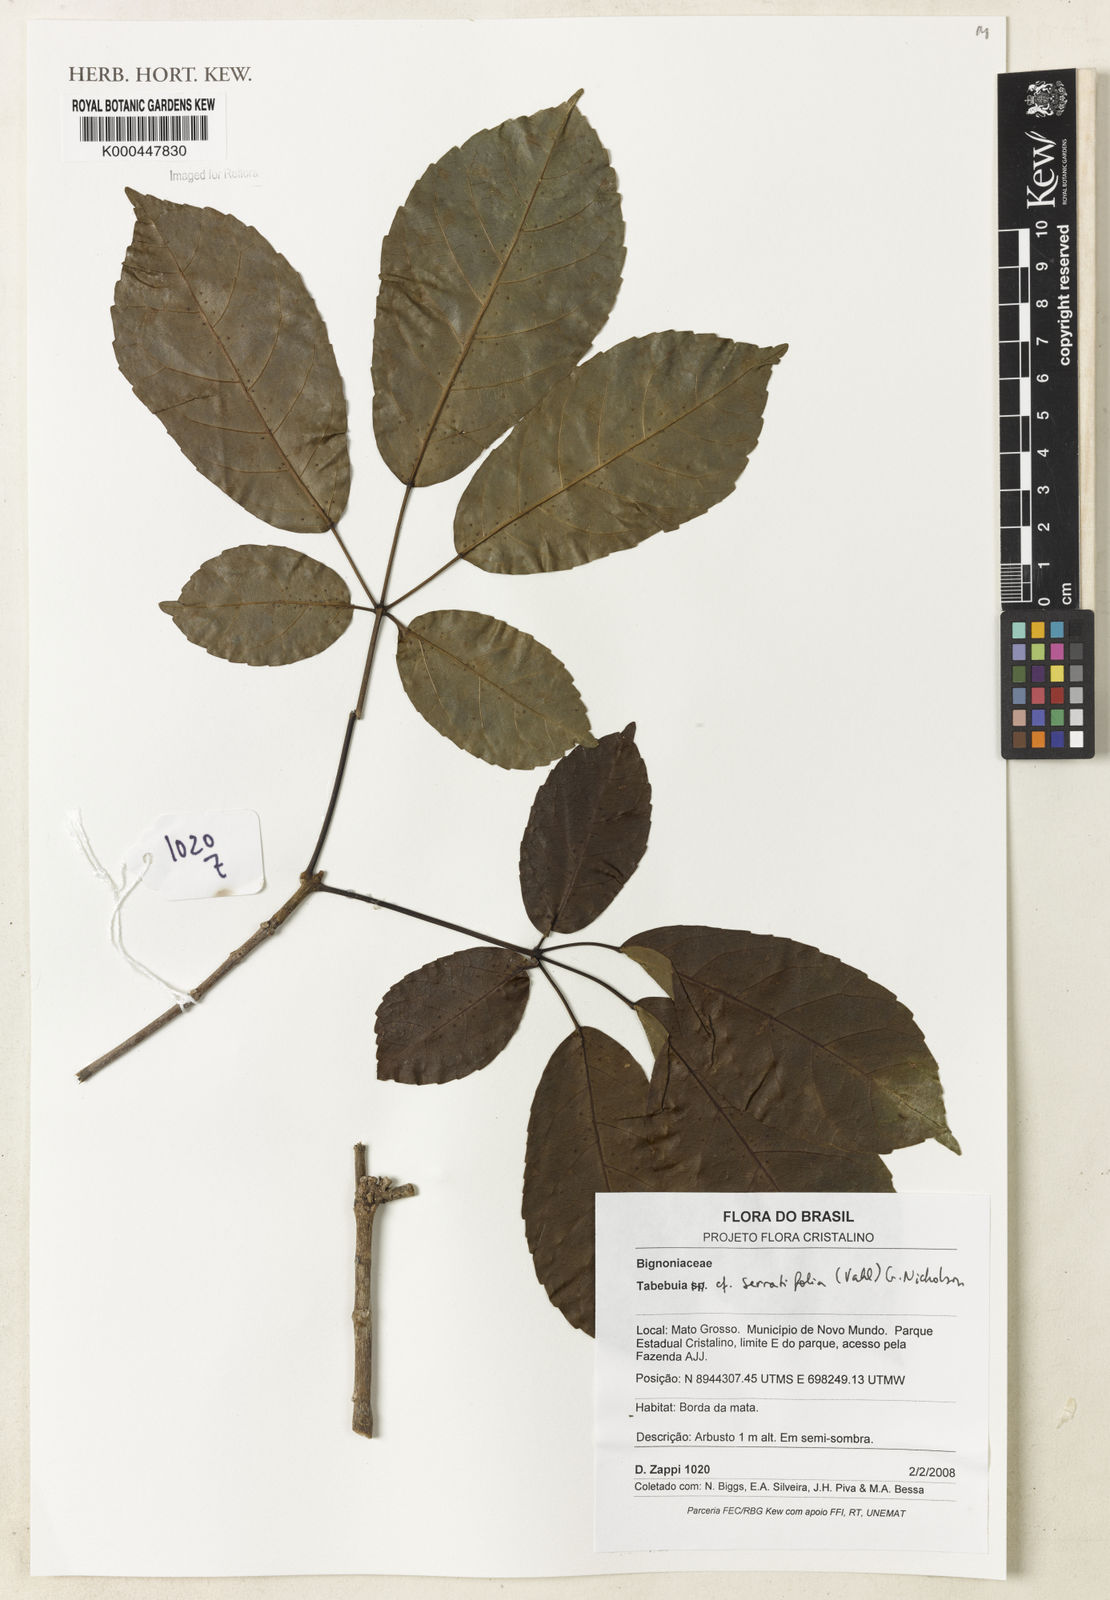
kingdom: Plantae
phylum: Tracheophyta
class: Magnoliopsida
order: Lamiales
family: Bignoniaceae
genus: Handroanthus
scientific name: Handroanthus serratifolius
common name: Yellow ipe
